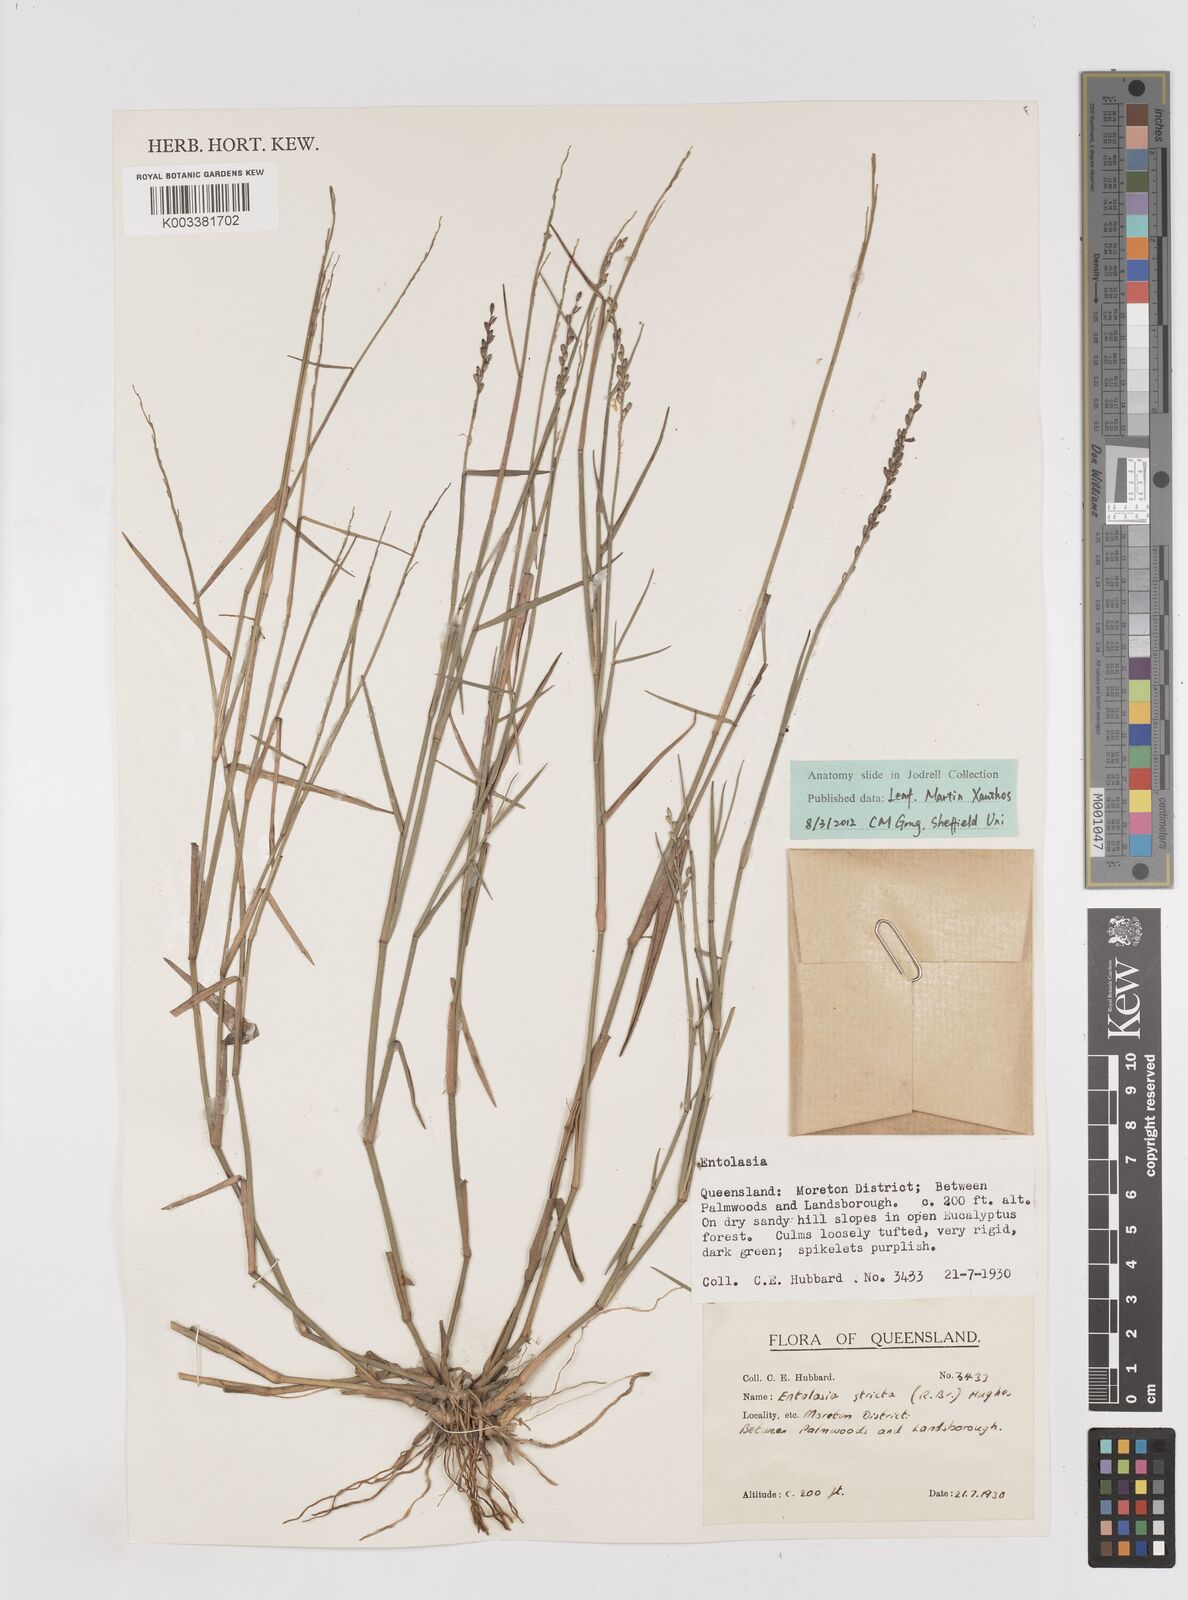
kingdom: Plantae
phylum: Tracheophyta
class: Liliopsida
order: Poales
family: Poaceae
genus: Entolasia
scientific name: Entolasia stricta
